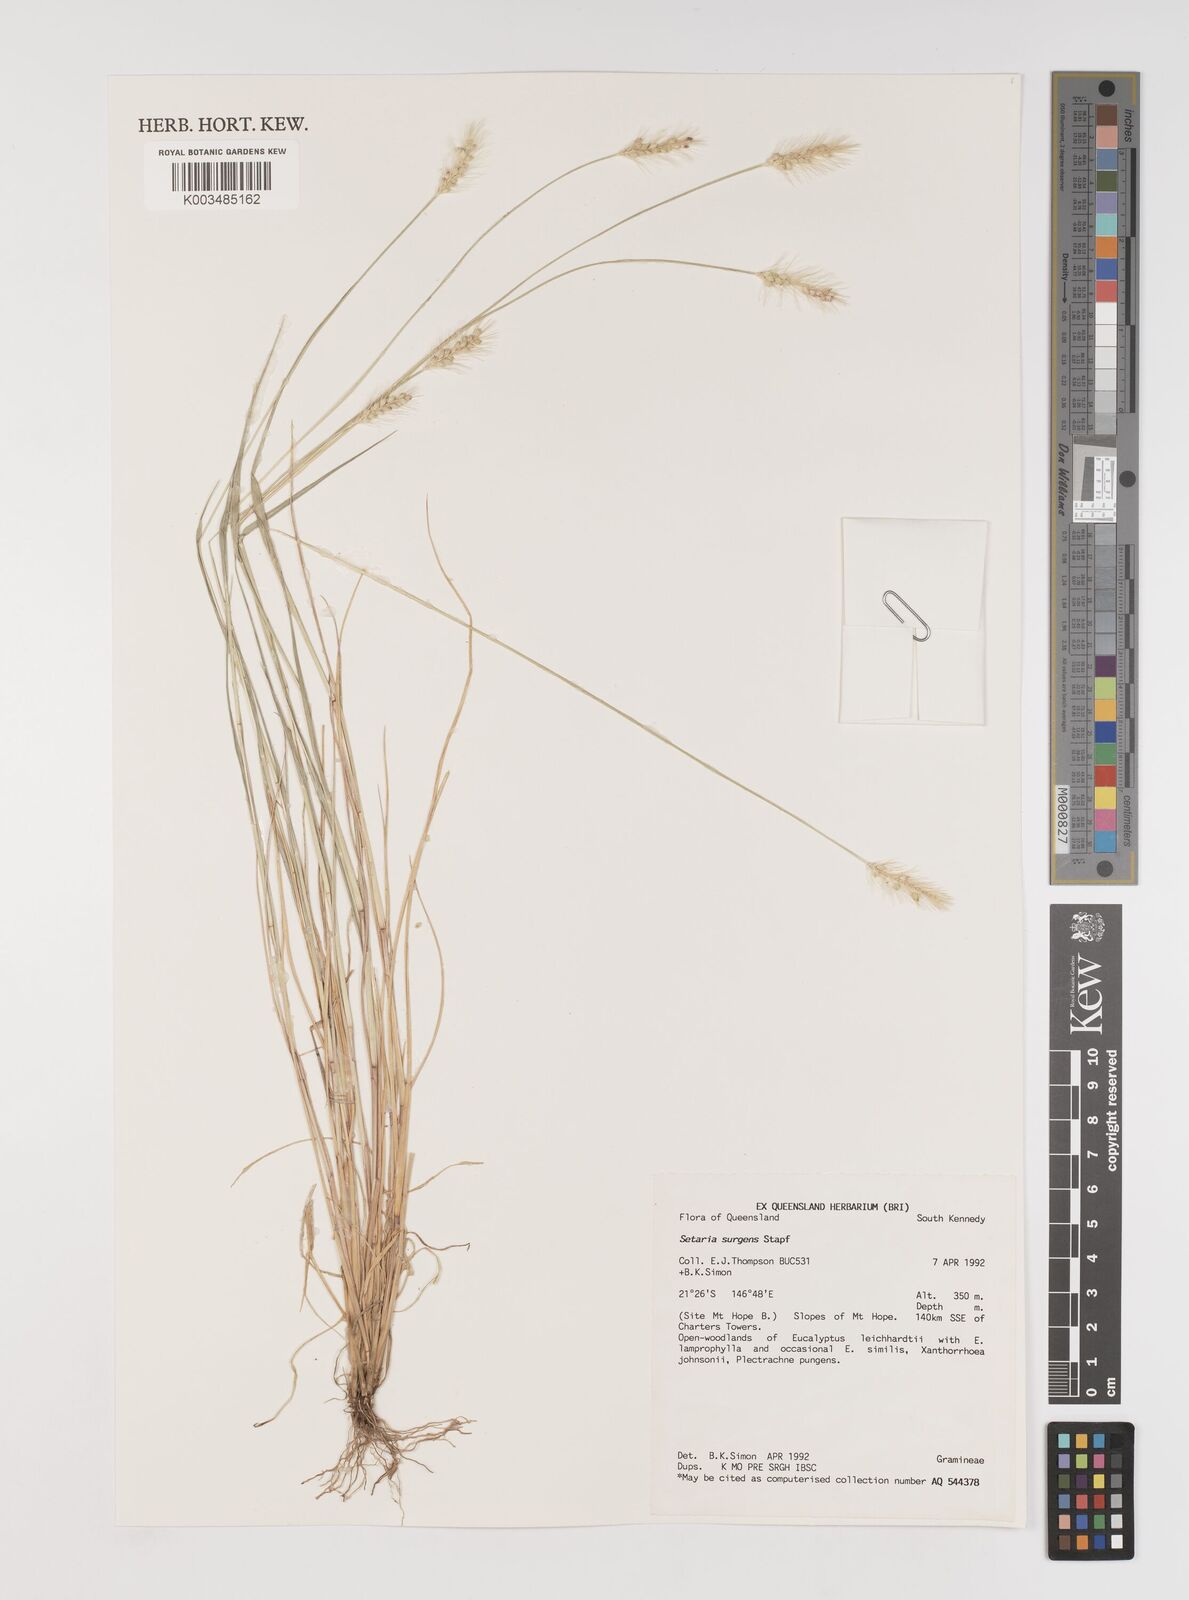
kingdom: Plantae
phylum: Tracheophyta
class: Liliopsida
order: Poales
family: Poaceae
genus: Setaria
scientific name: Setaria apiculata
